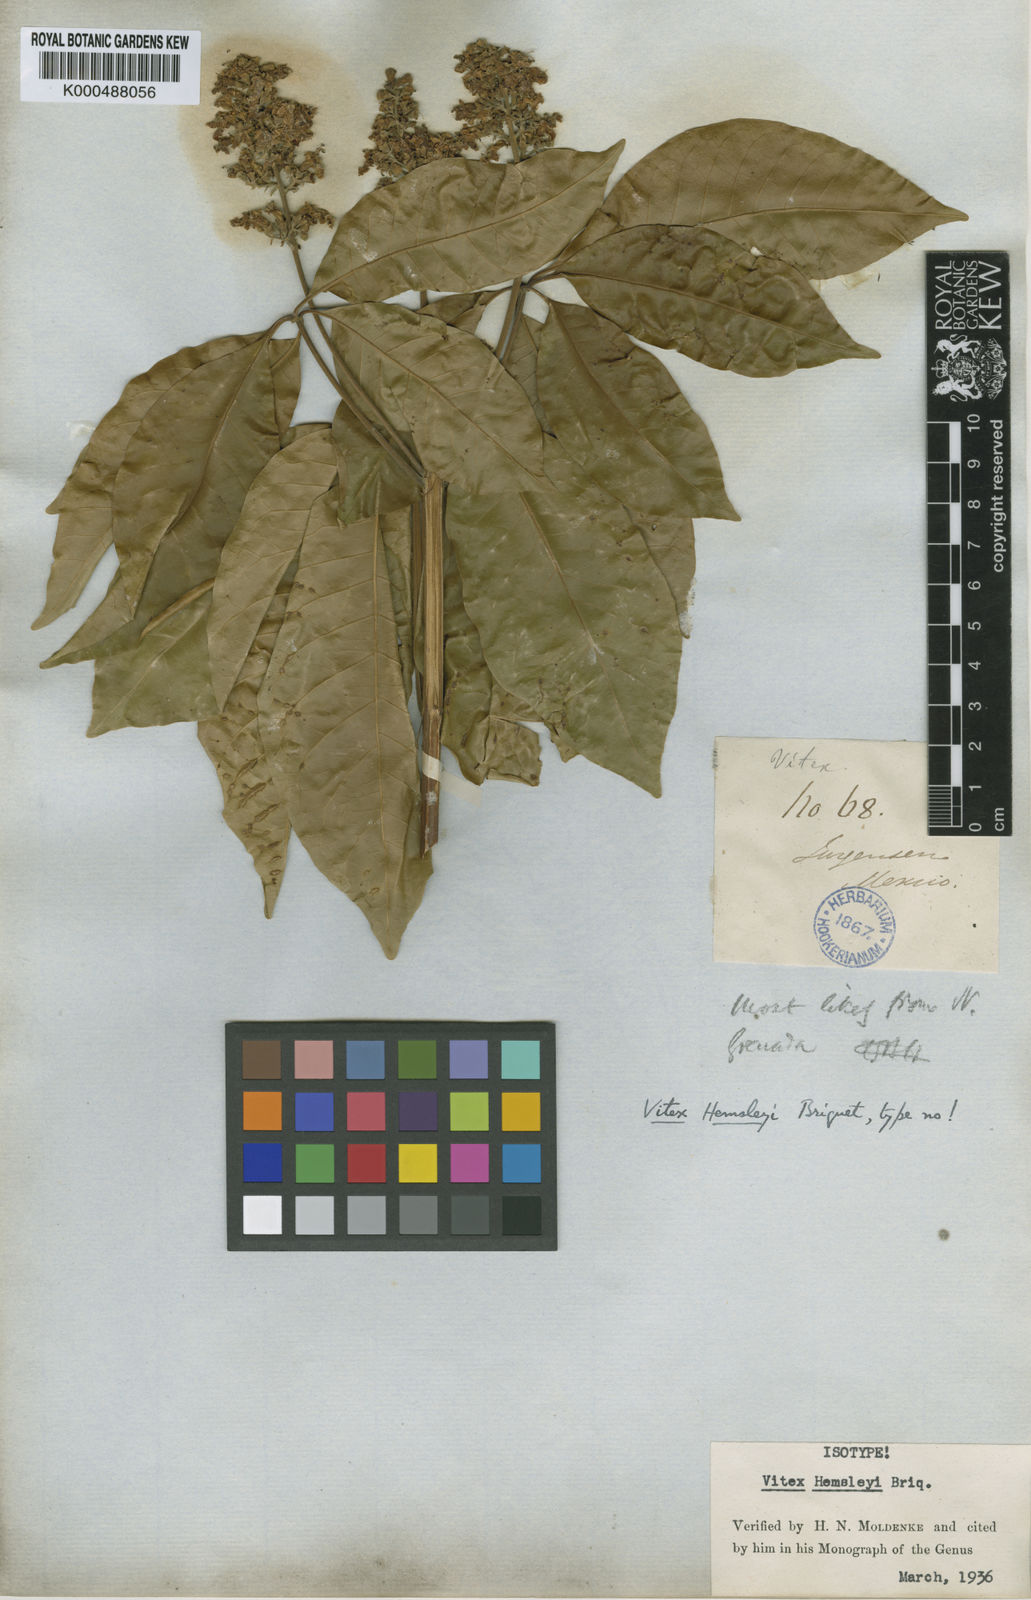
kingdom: Plantae
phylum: Tracheophyta
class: Magnoliopsida
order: Lamiales
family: Lamiaceae
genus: Vitex
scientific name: Vitex hemsleyi
